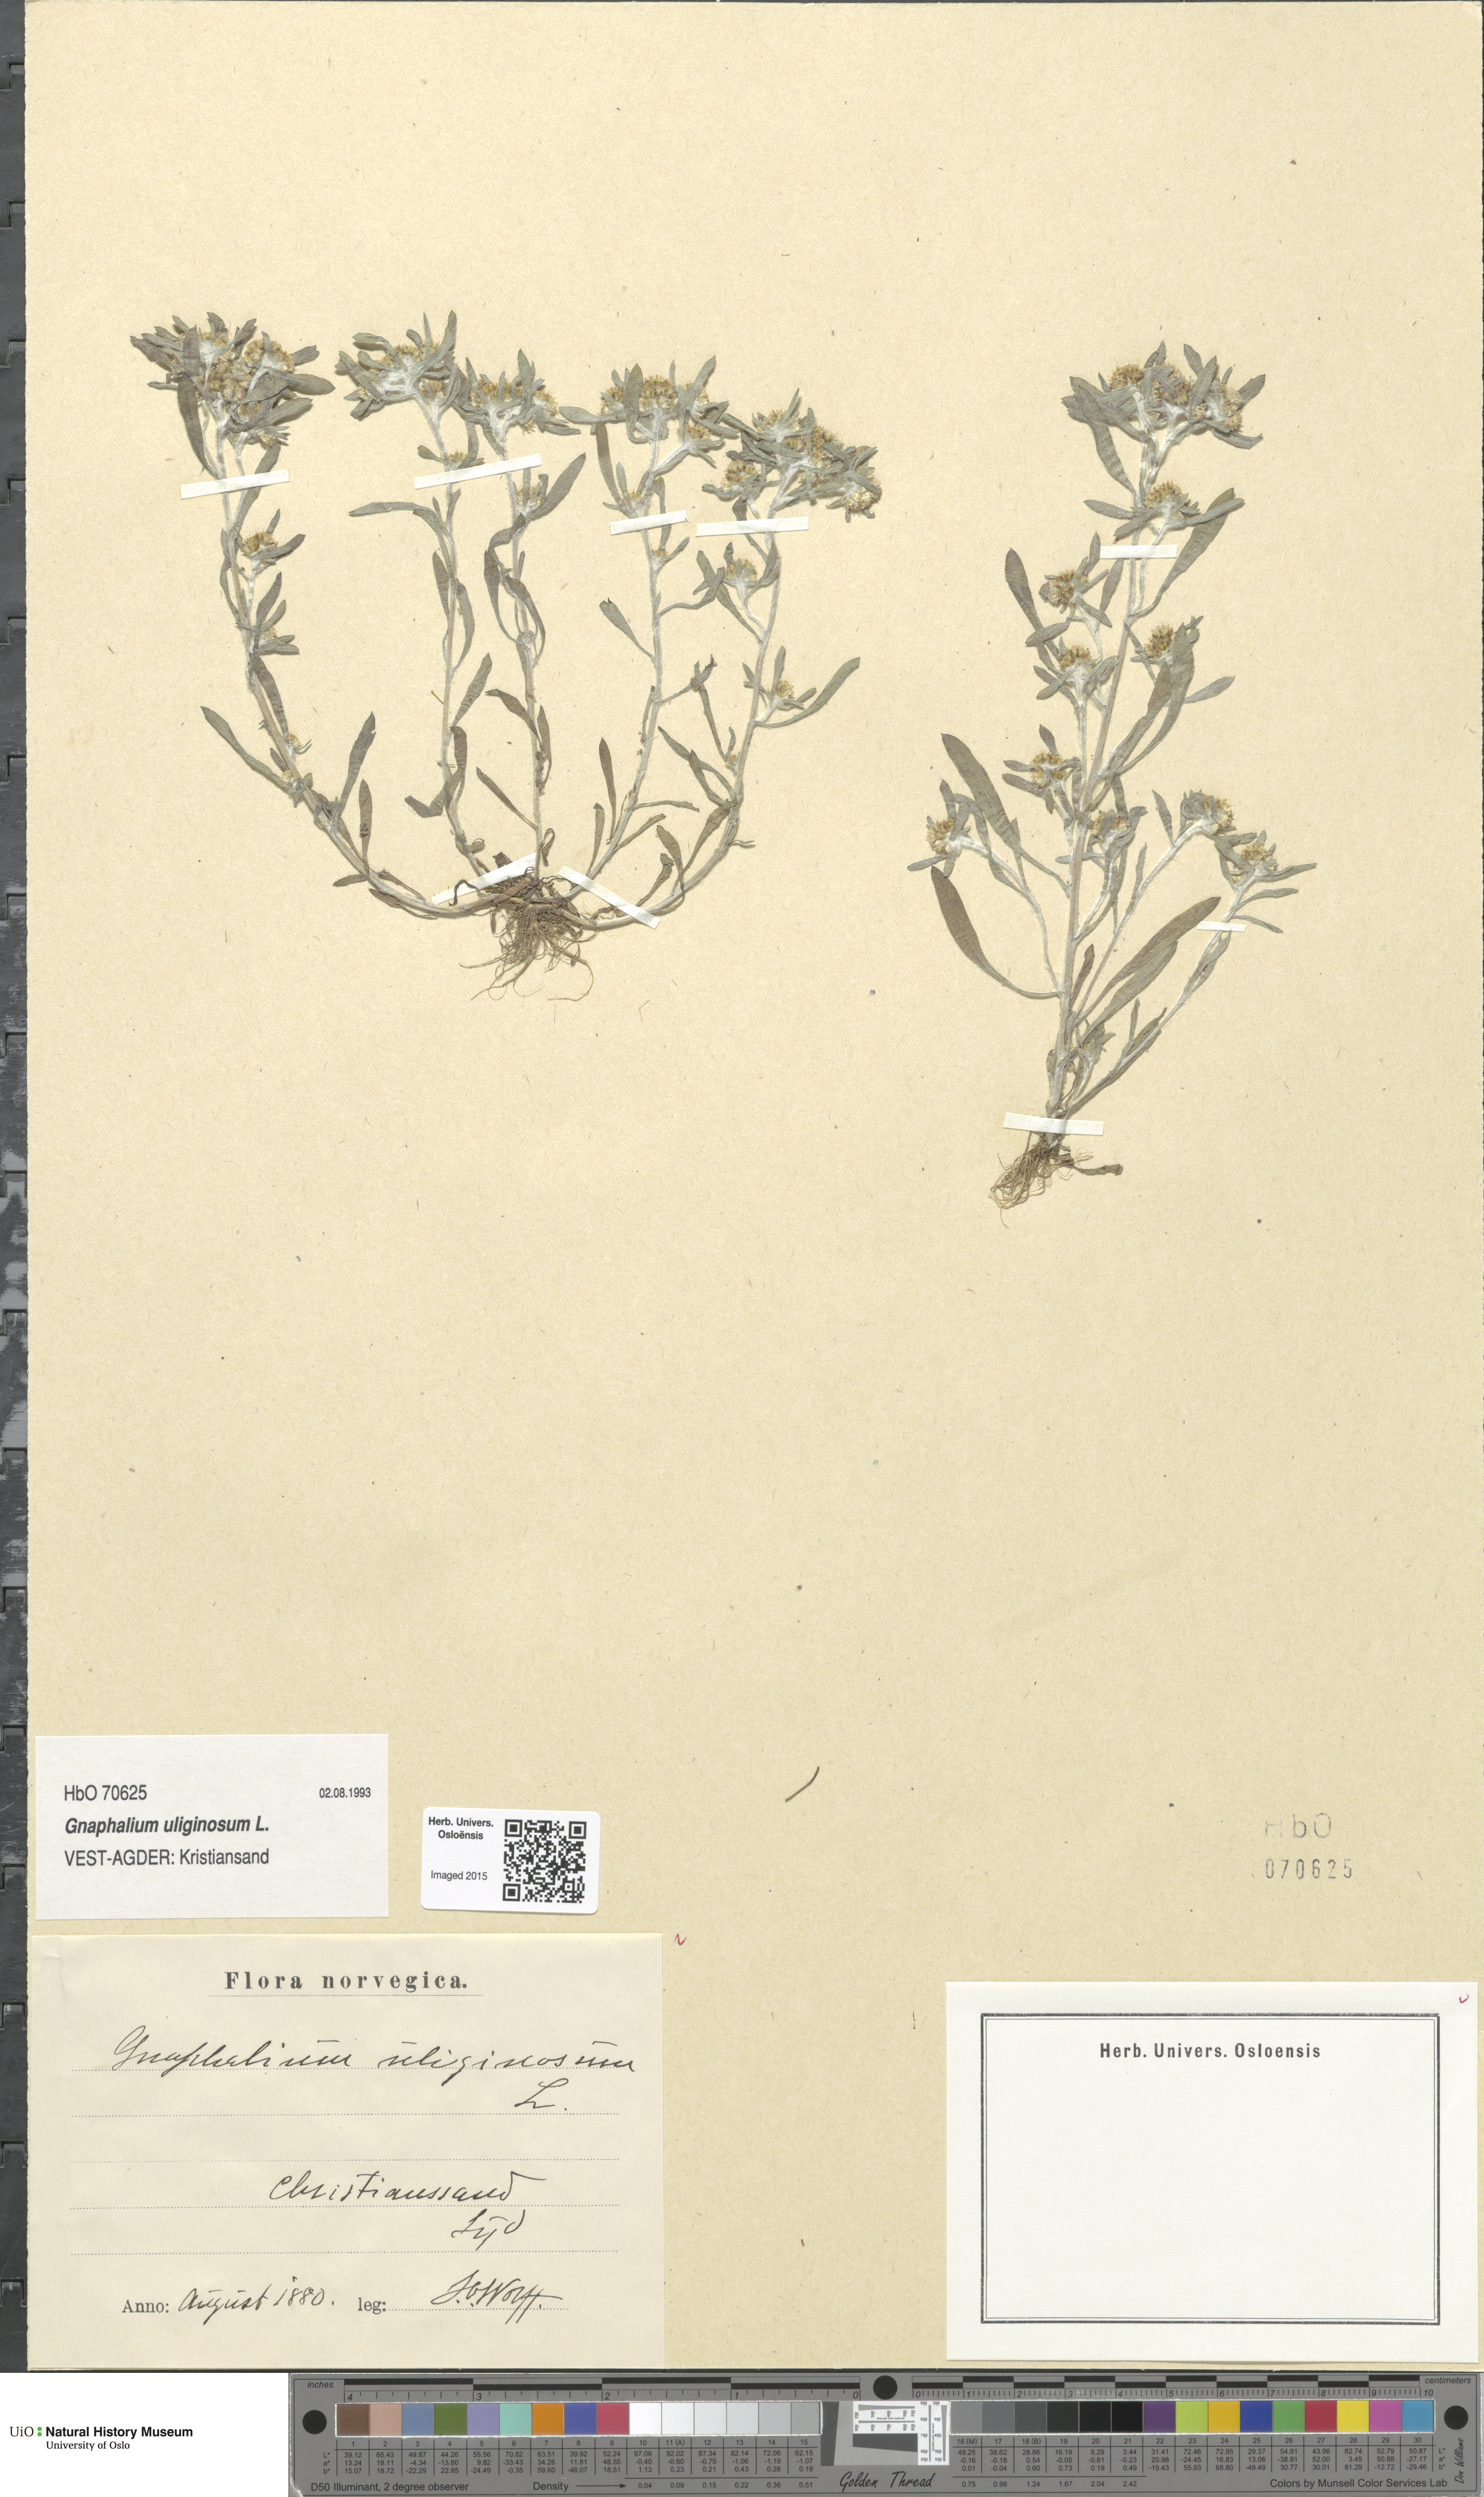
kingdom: Plantae
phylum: Tracheophyta
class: Magnoliopsida
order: Asterales
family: Asteraceae
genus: Gnaphalium
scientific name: Gnaphalium uliginosum
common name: Marsh cudweed
